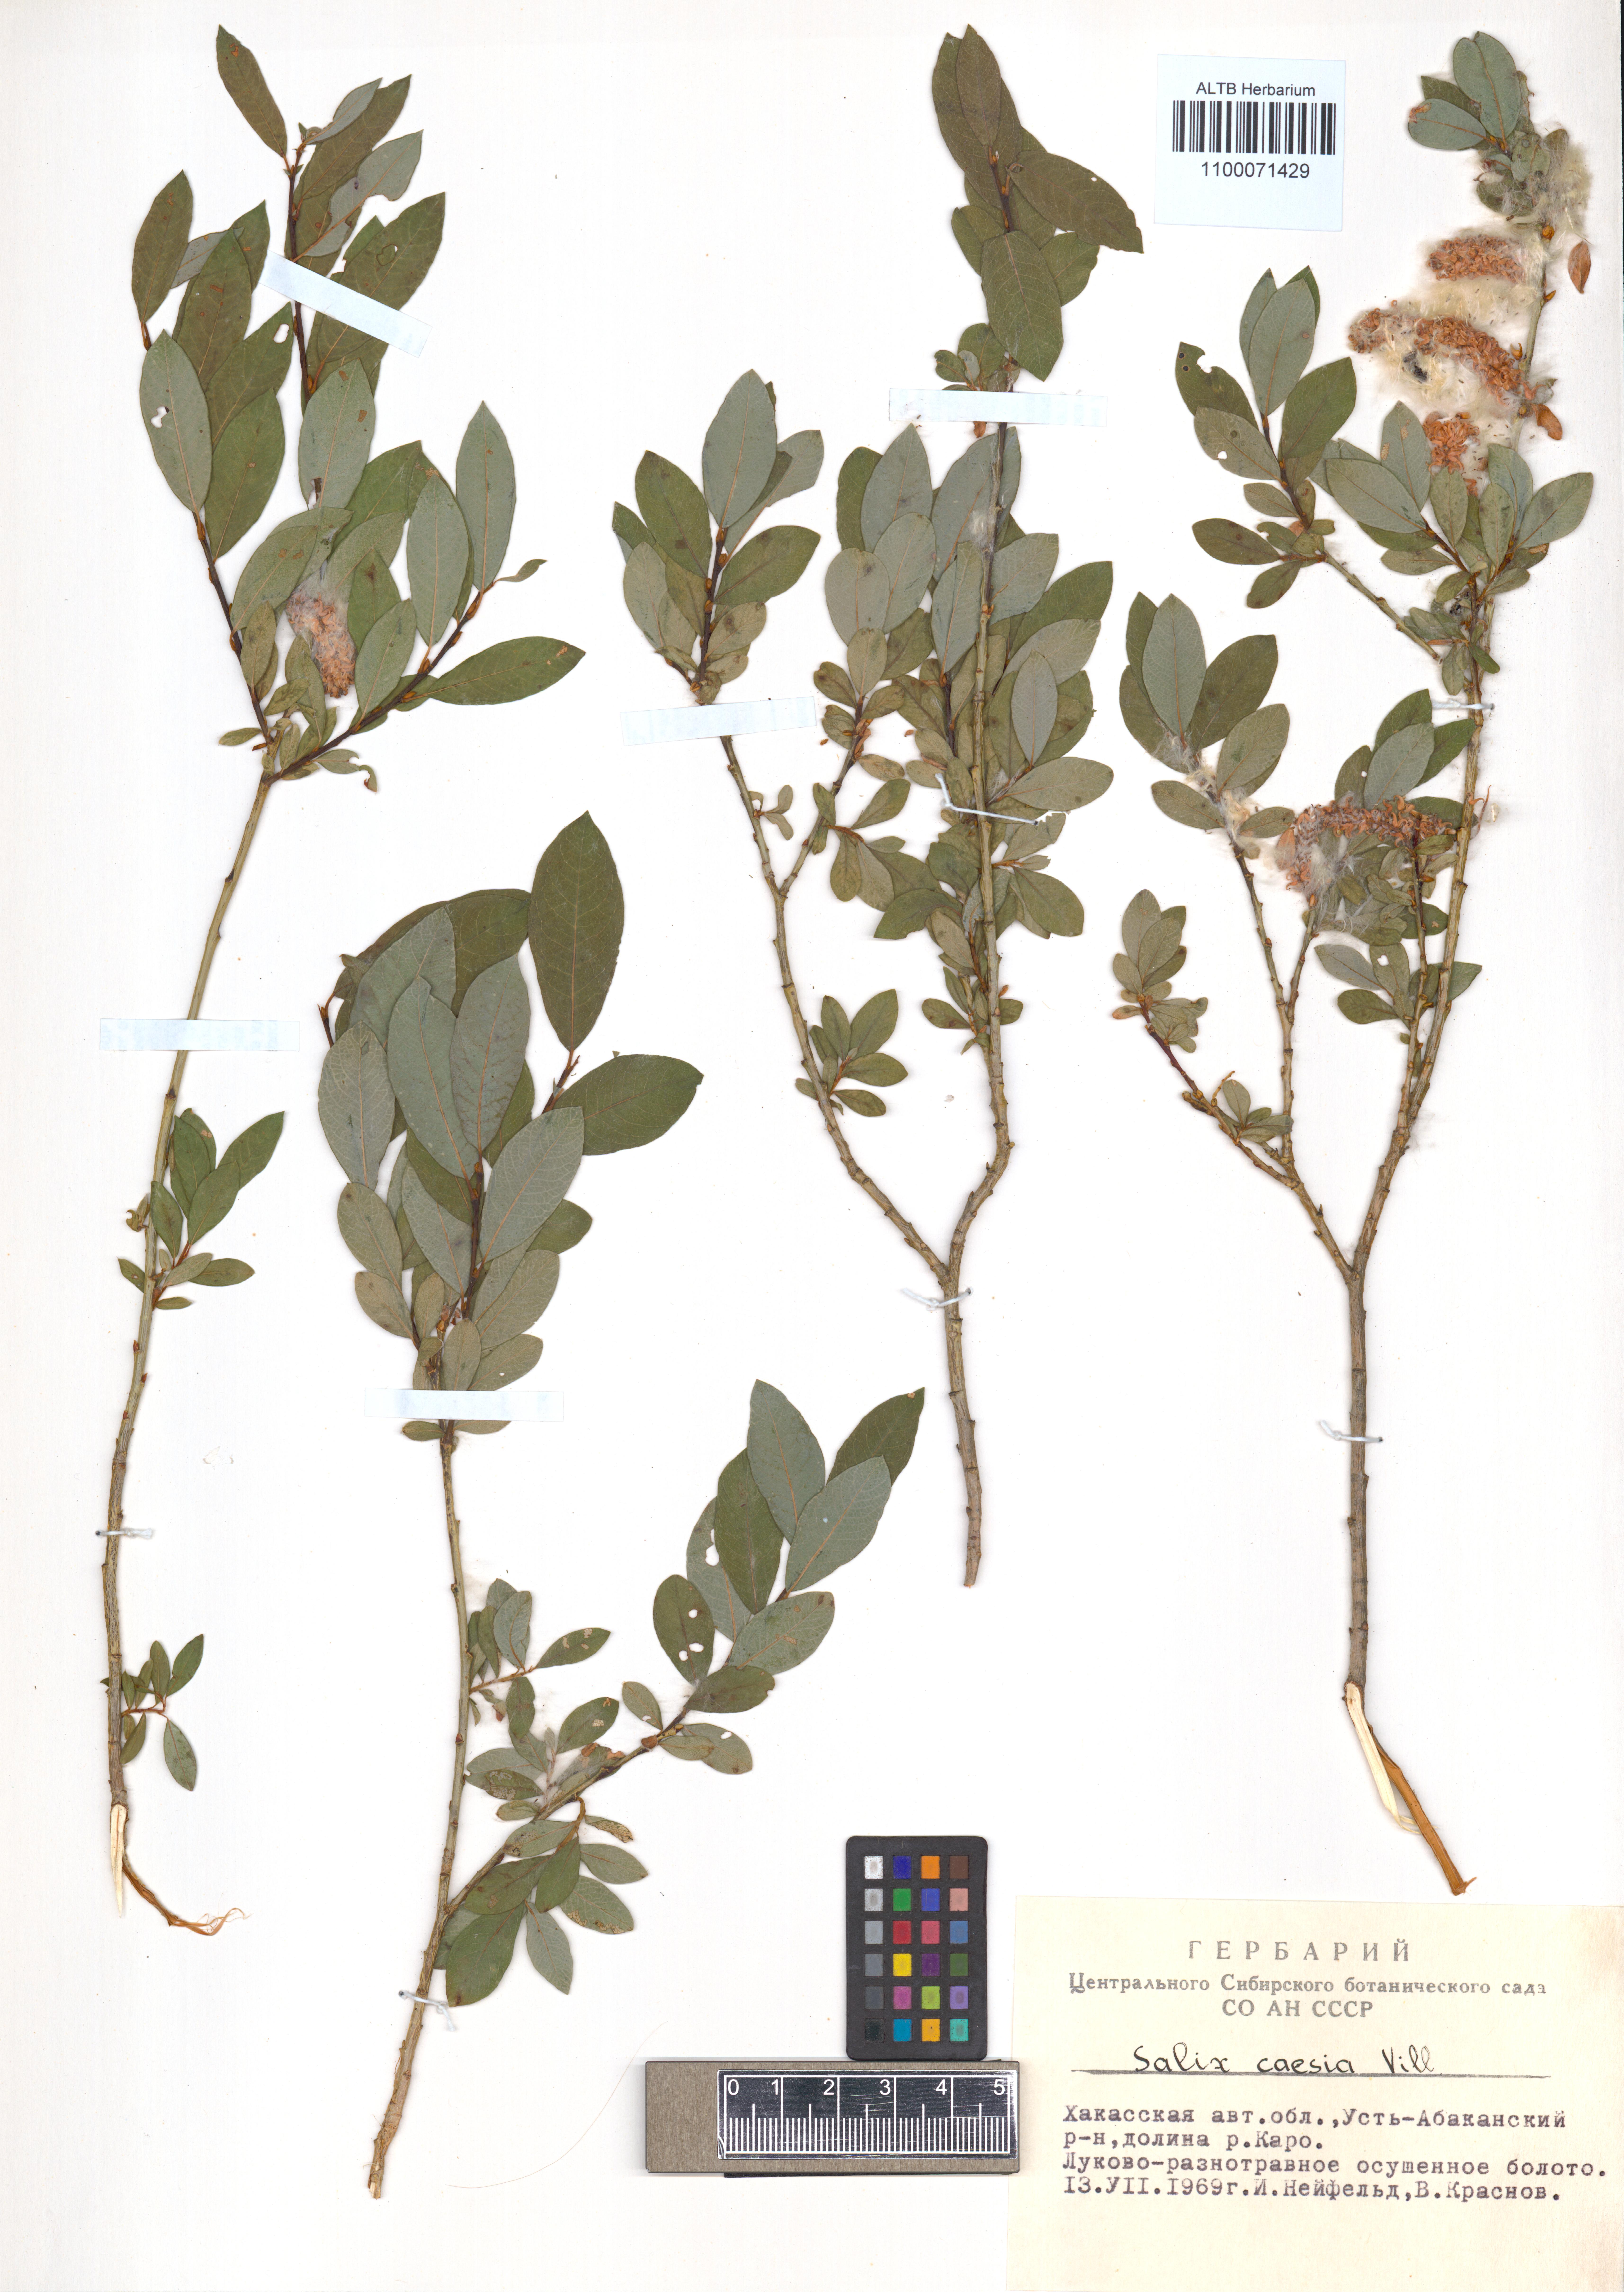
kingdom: Plantae
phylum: Tracheophyta
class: Magnoliopsida
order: Malpighiales
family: Salicaceae
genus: Salix
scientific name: Salix caesia
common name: Blue willow
